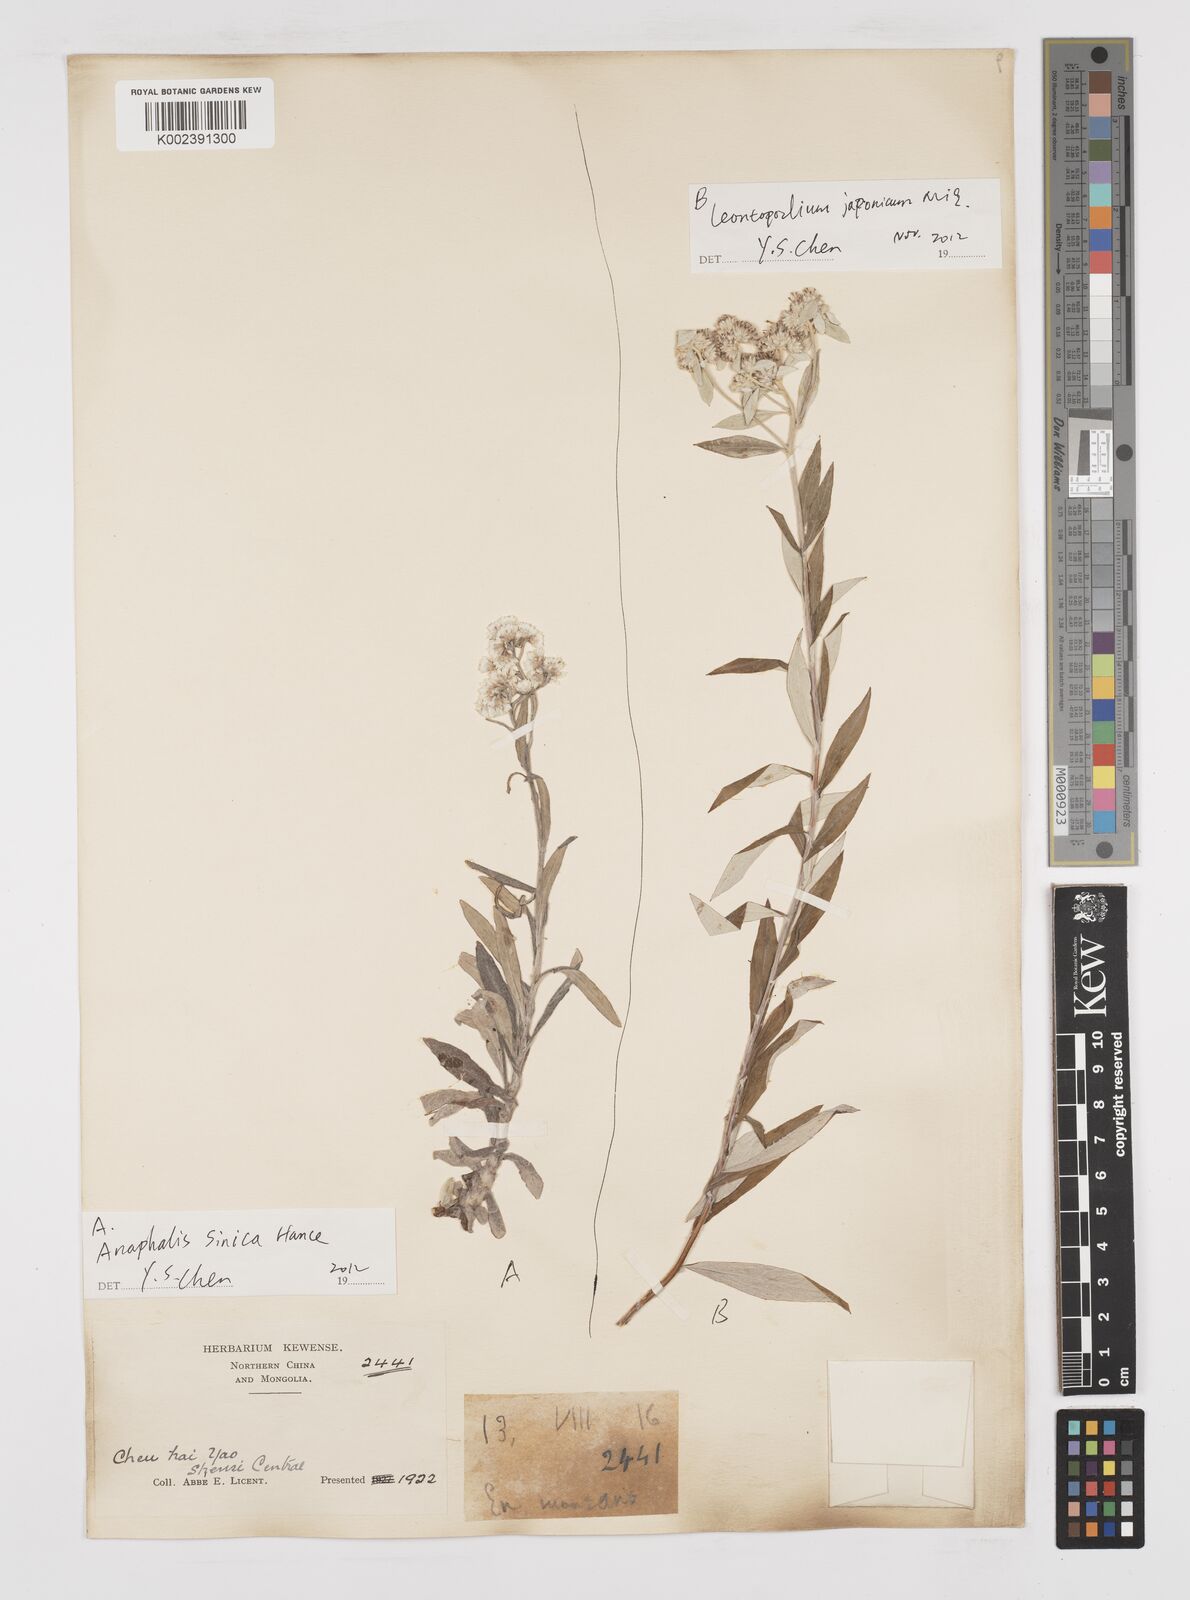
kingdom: Plantae
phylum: Tracheophyta
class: Magnoliopsida
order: Asterales
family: Asteraceae
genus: Anaphalis
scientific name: Anaphalis sinica
